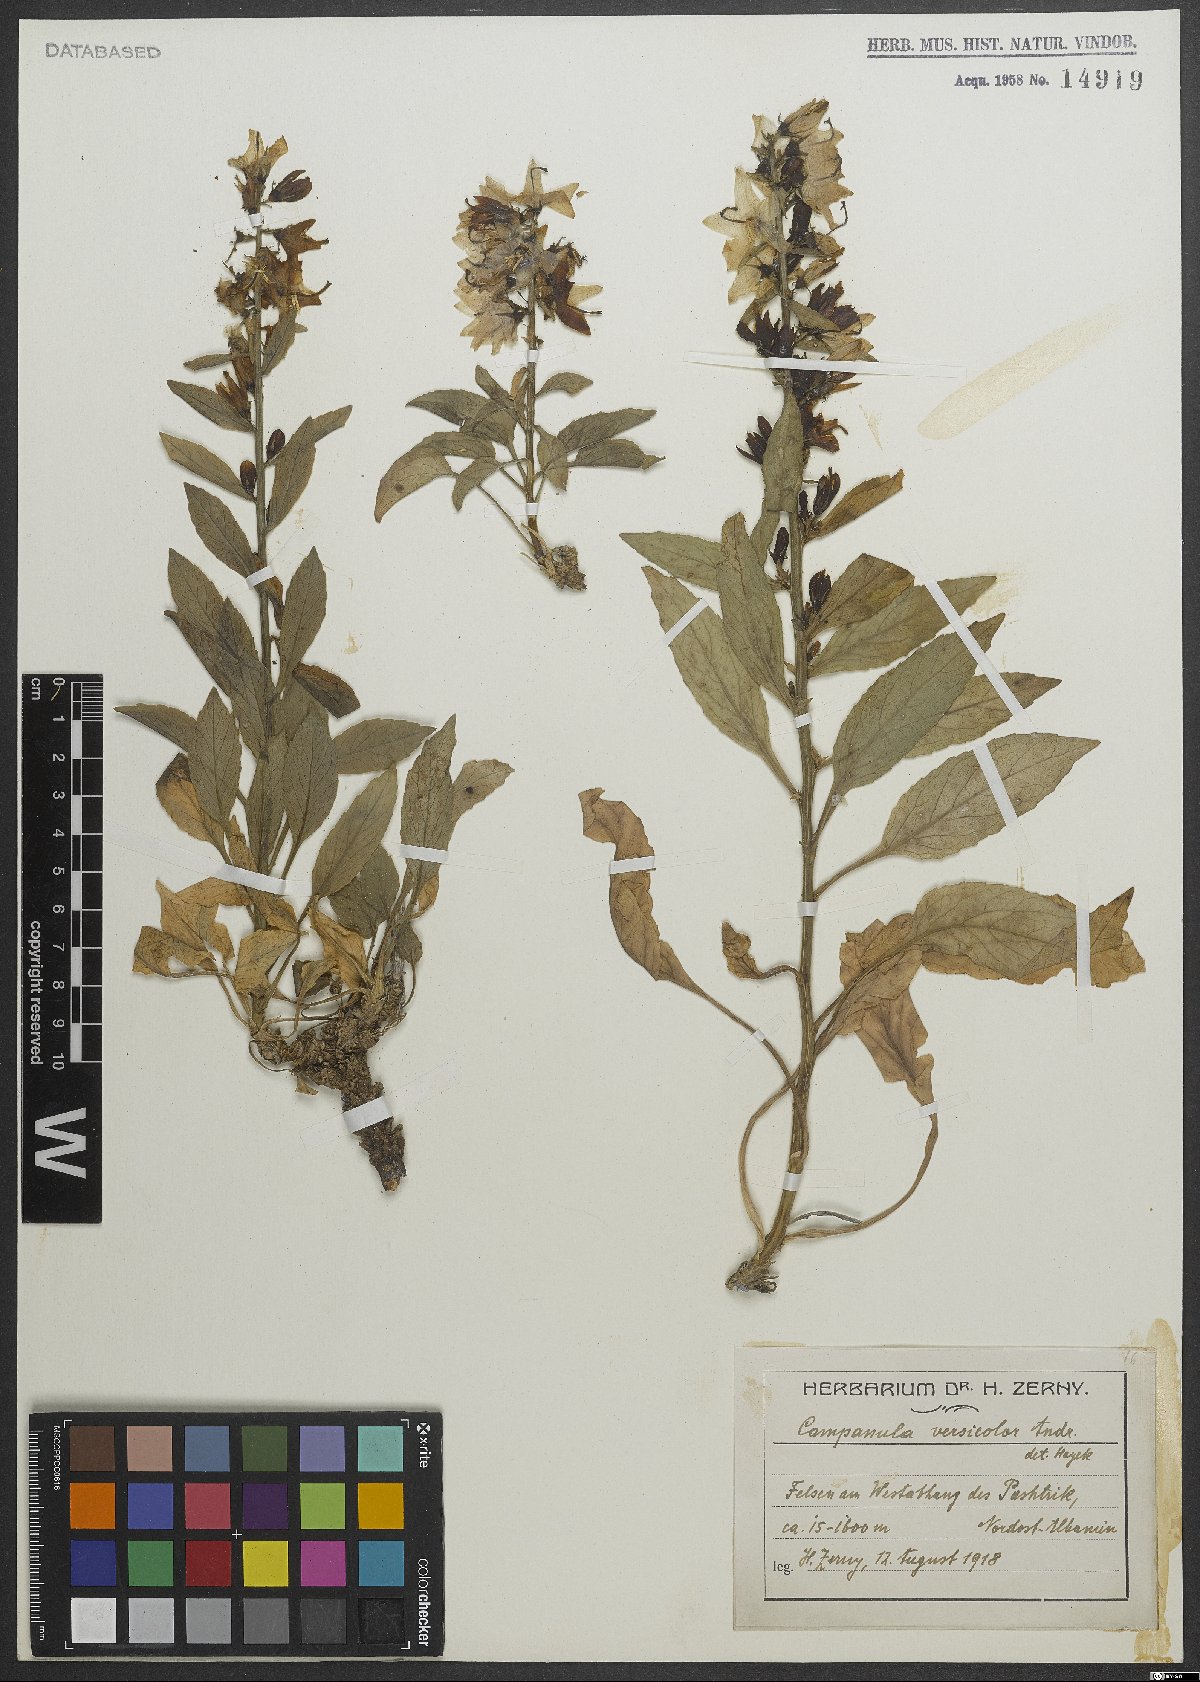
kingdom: Plantae
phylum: Tracheophyta
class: Magnoliopsida
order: Asterales
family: Campanulaceae
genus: Campanula
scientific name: Campanula versicolor
